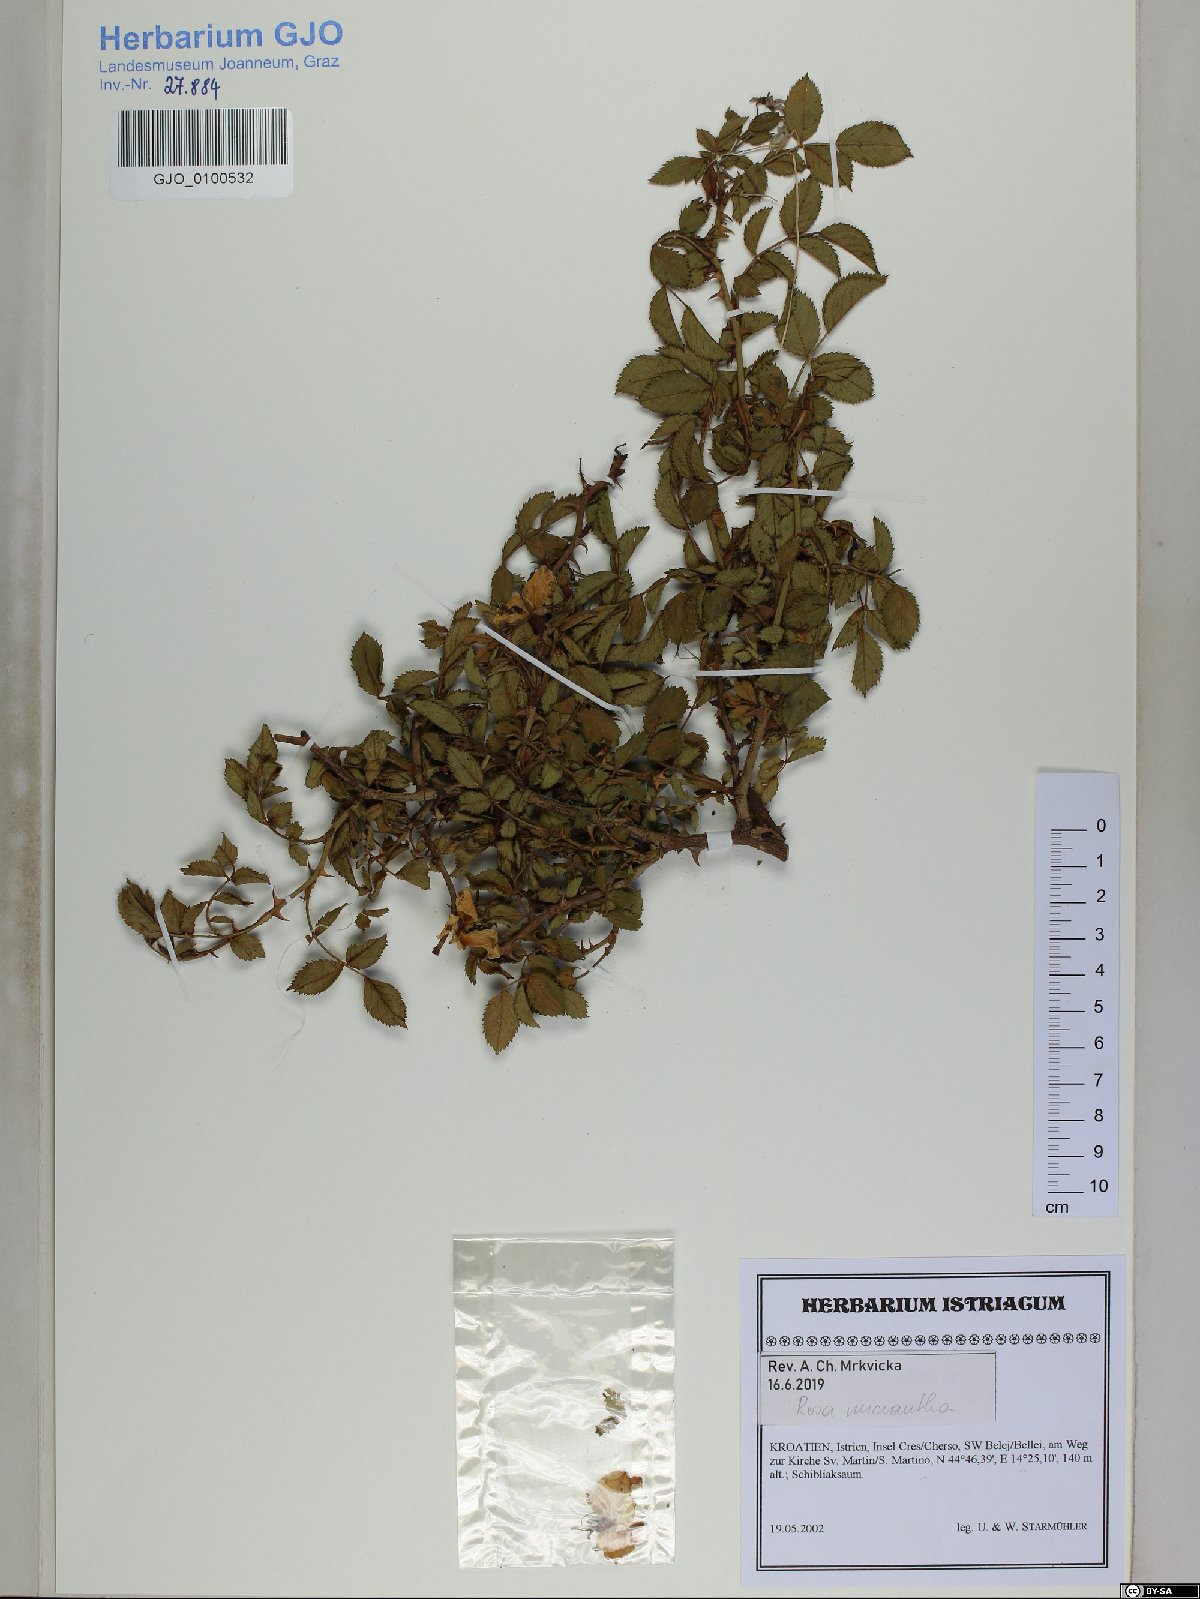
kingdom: Plantae
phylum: Tracheophyta
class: Magnoliopsida
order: Rosales
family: Rosaceae
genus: Rosa
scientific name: Rosa micrantha
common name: Small-flowered sweet-briar
